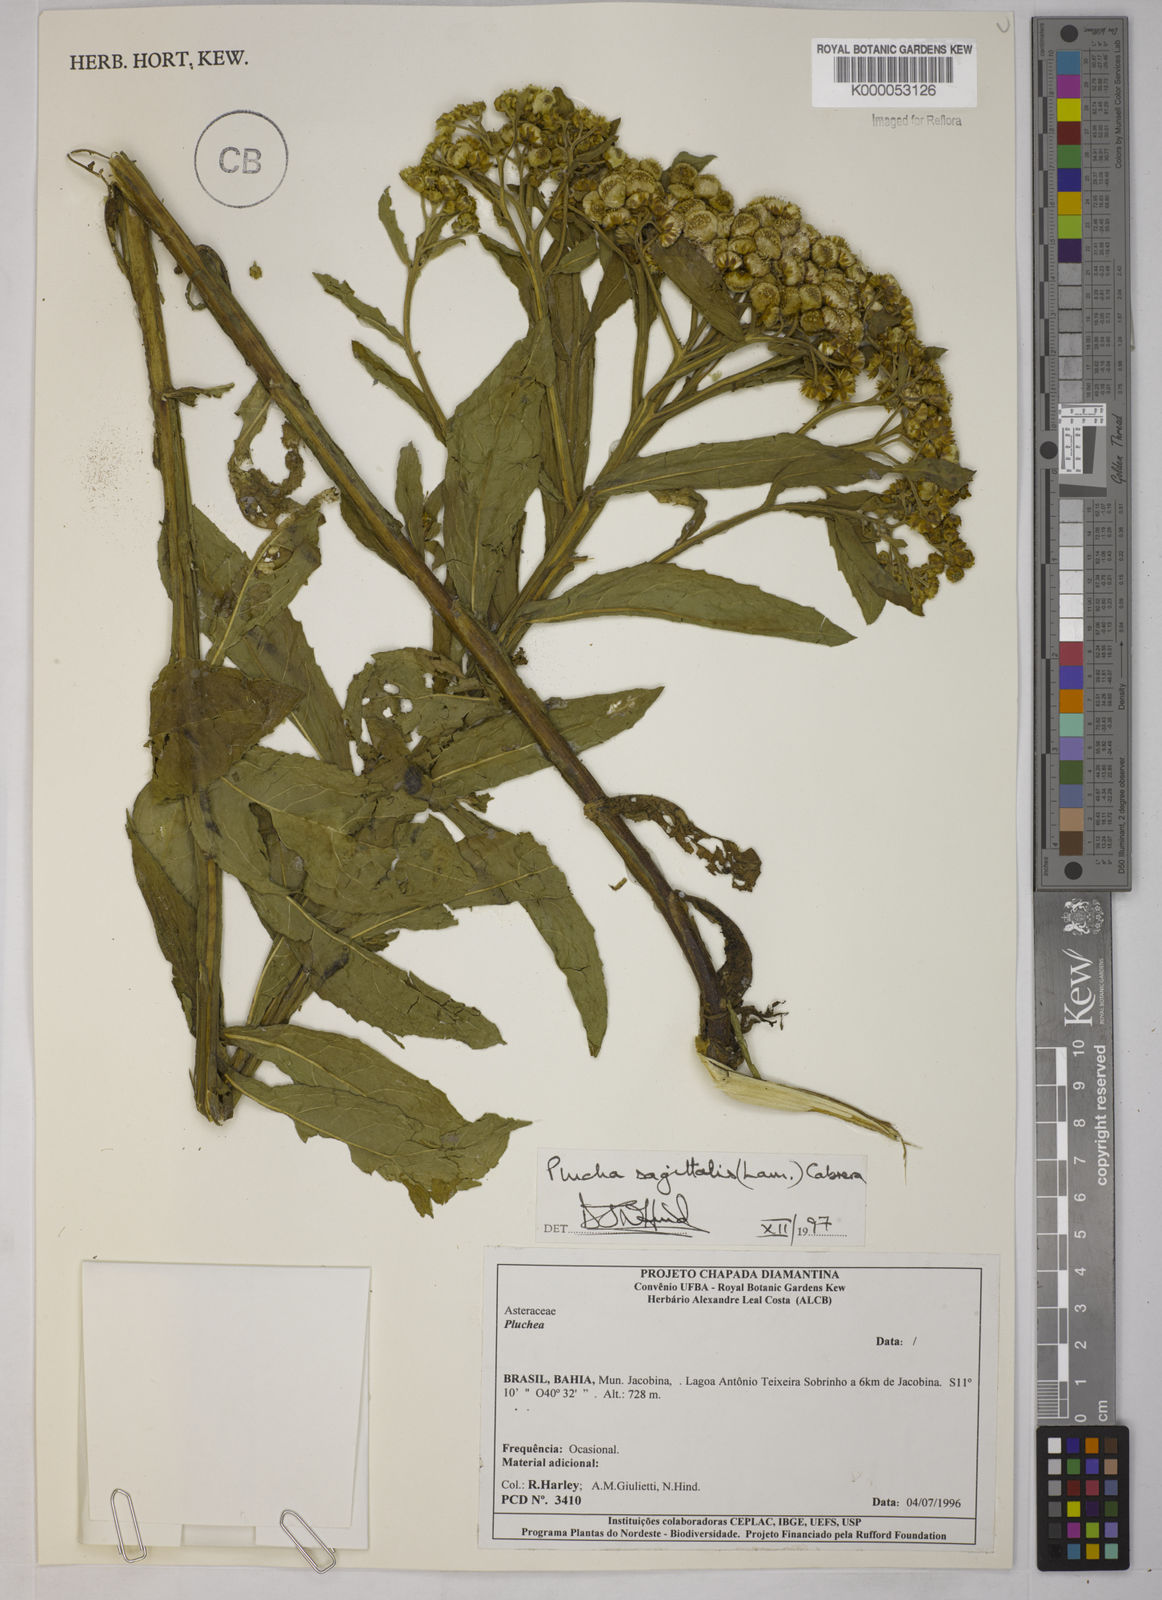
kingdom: Plantae
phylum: Tracheophyta
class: Magnoliopsida
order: Asterales
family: Asteraceae
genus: Pluchea
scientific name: Pluchea sagittalis
